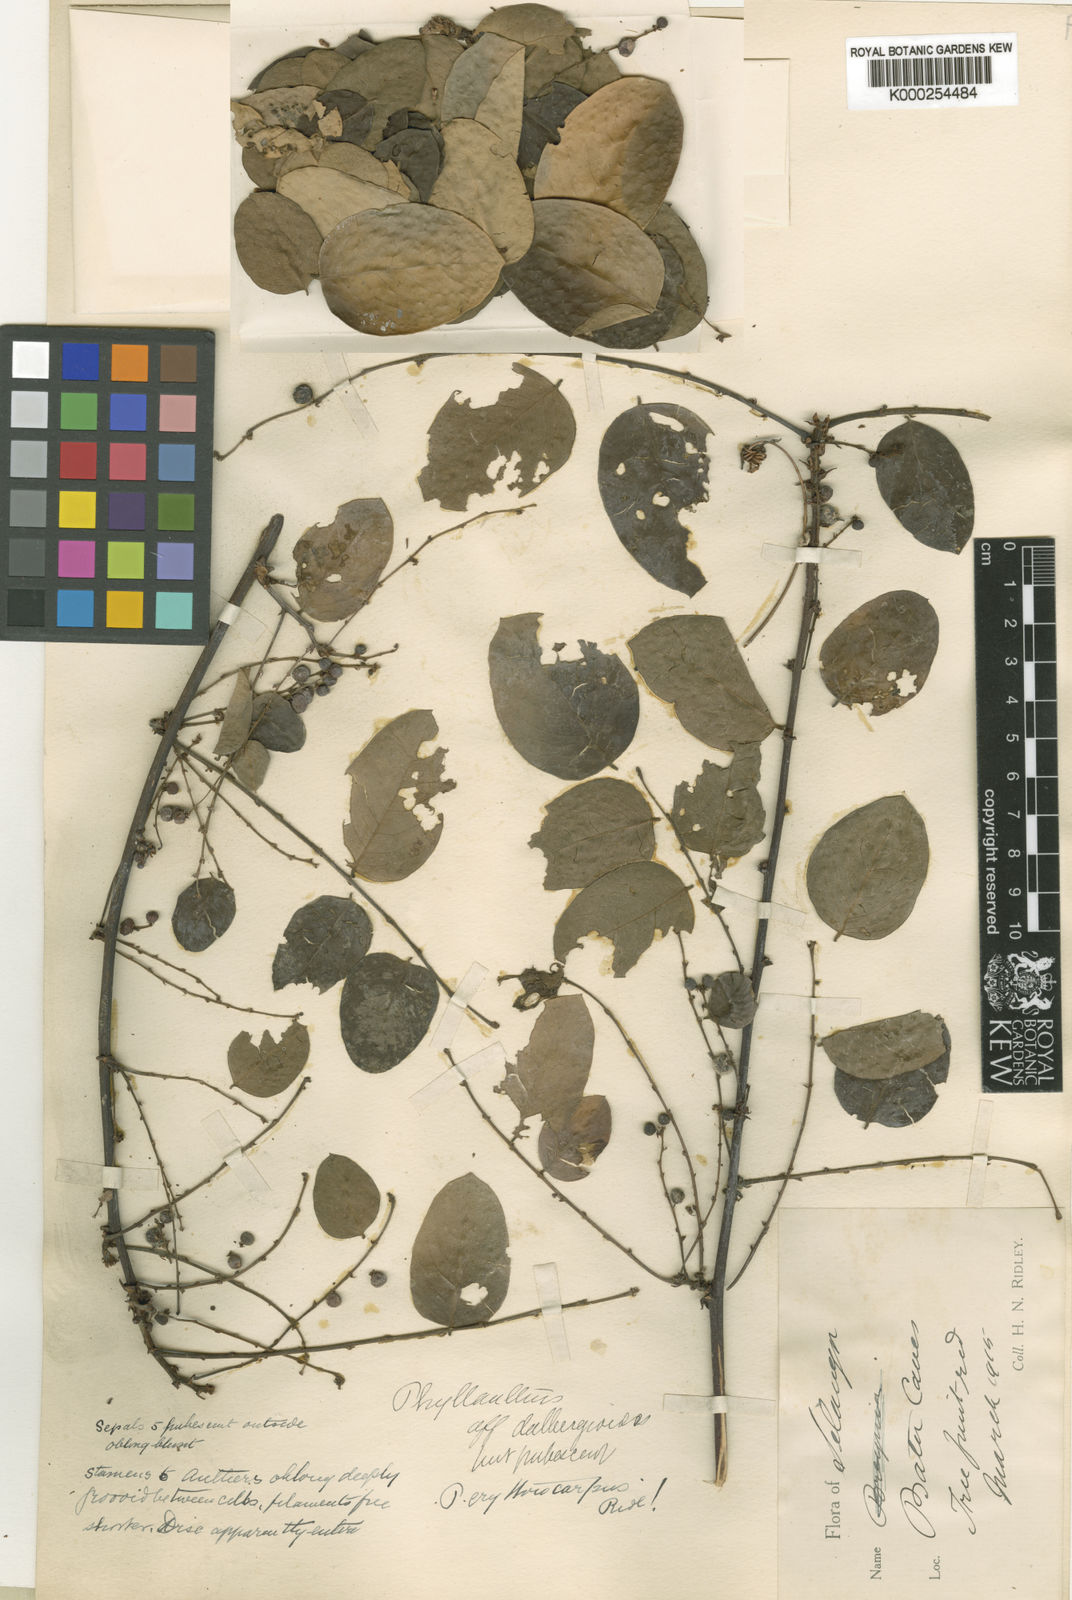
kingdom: Plantae
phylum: Tracheophyta
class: Magnoliopsida
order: Malpighiales
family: Phyllanthaceae
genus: Phyllanthus
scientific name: Phyllanthus
